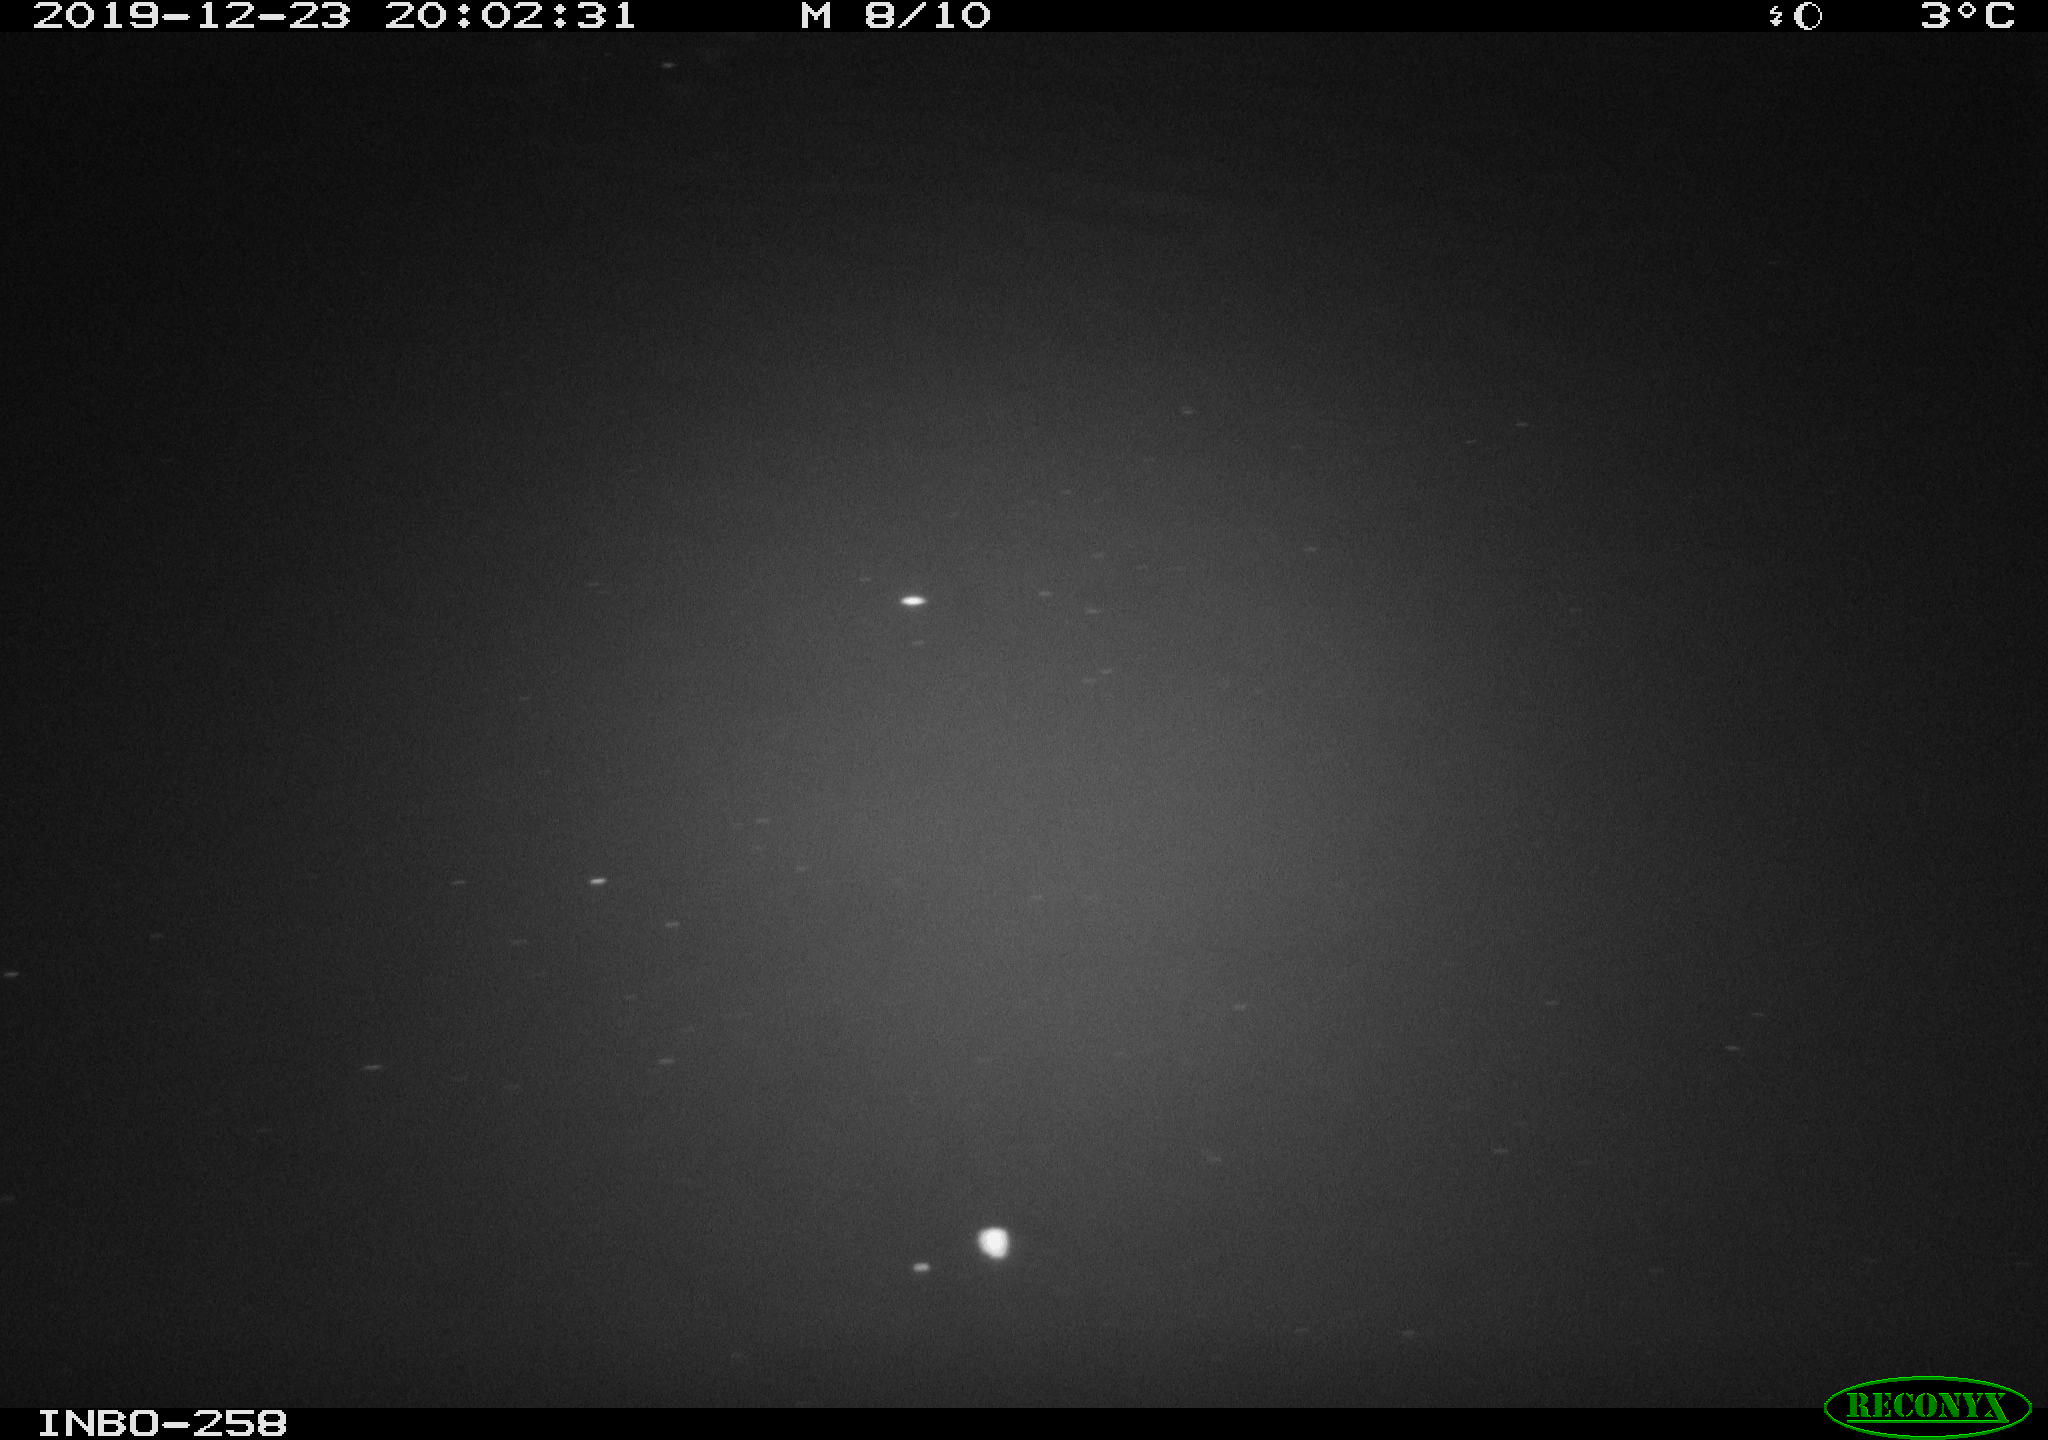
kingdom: Animalia
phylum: Chordata
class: Aves
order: Anseriformes
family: Anatidae
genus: Anas
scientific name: Anas platyrhynchos
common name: Mallard
